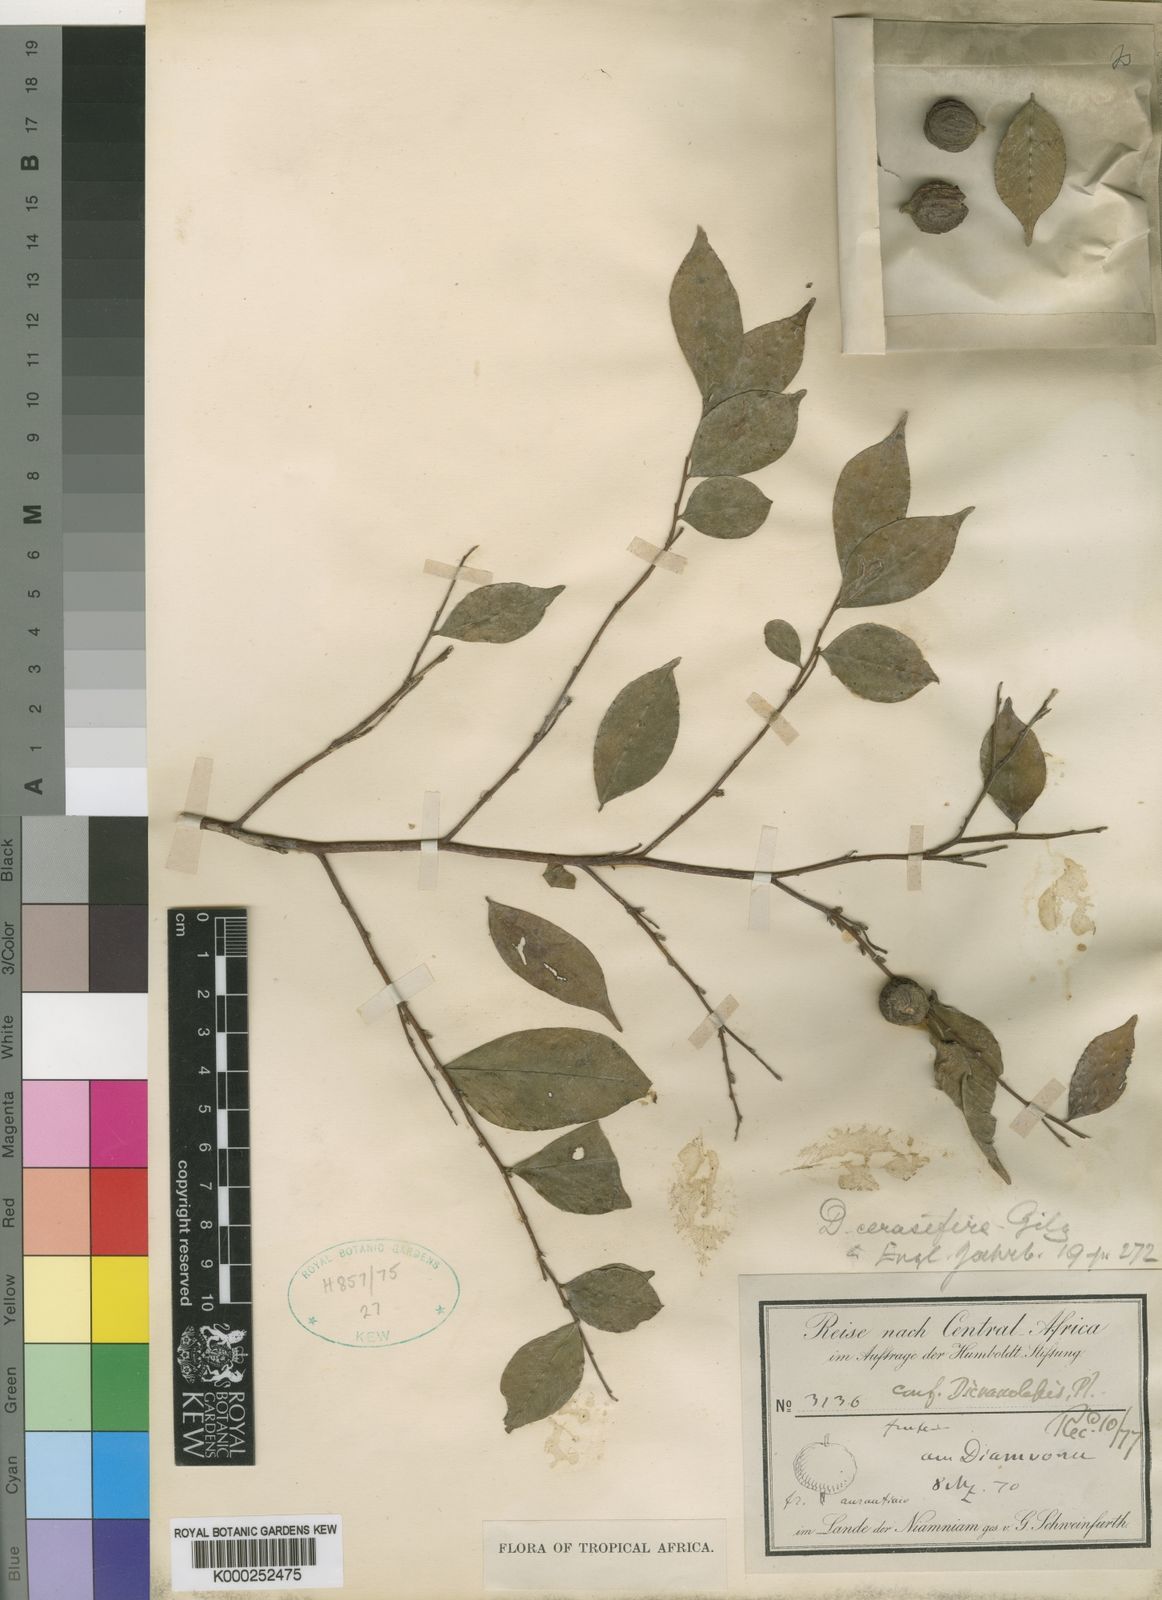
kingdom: Plantae
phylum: Tracheophyta
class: Magnoliopsida
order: Malvales
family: Thymelaeaceae
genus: Dicranolepis
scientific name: Dicranolepis cerasifera
